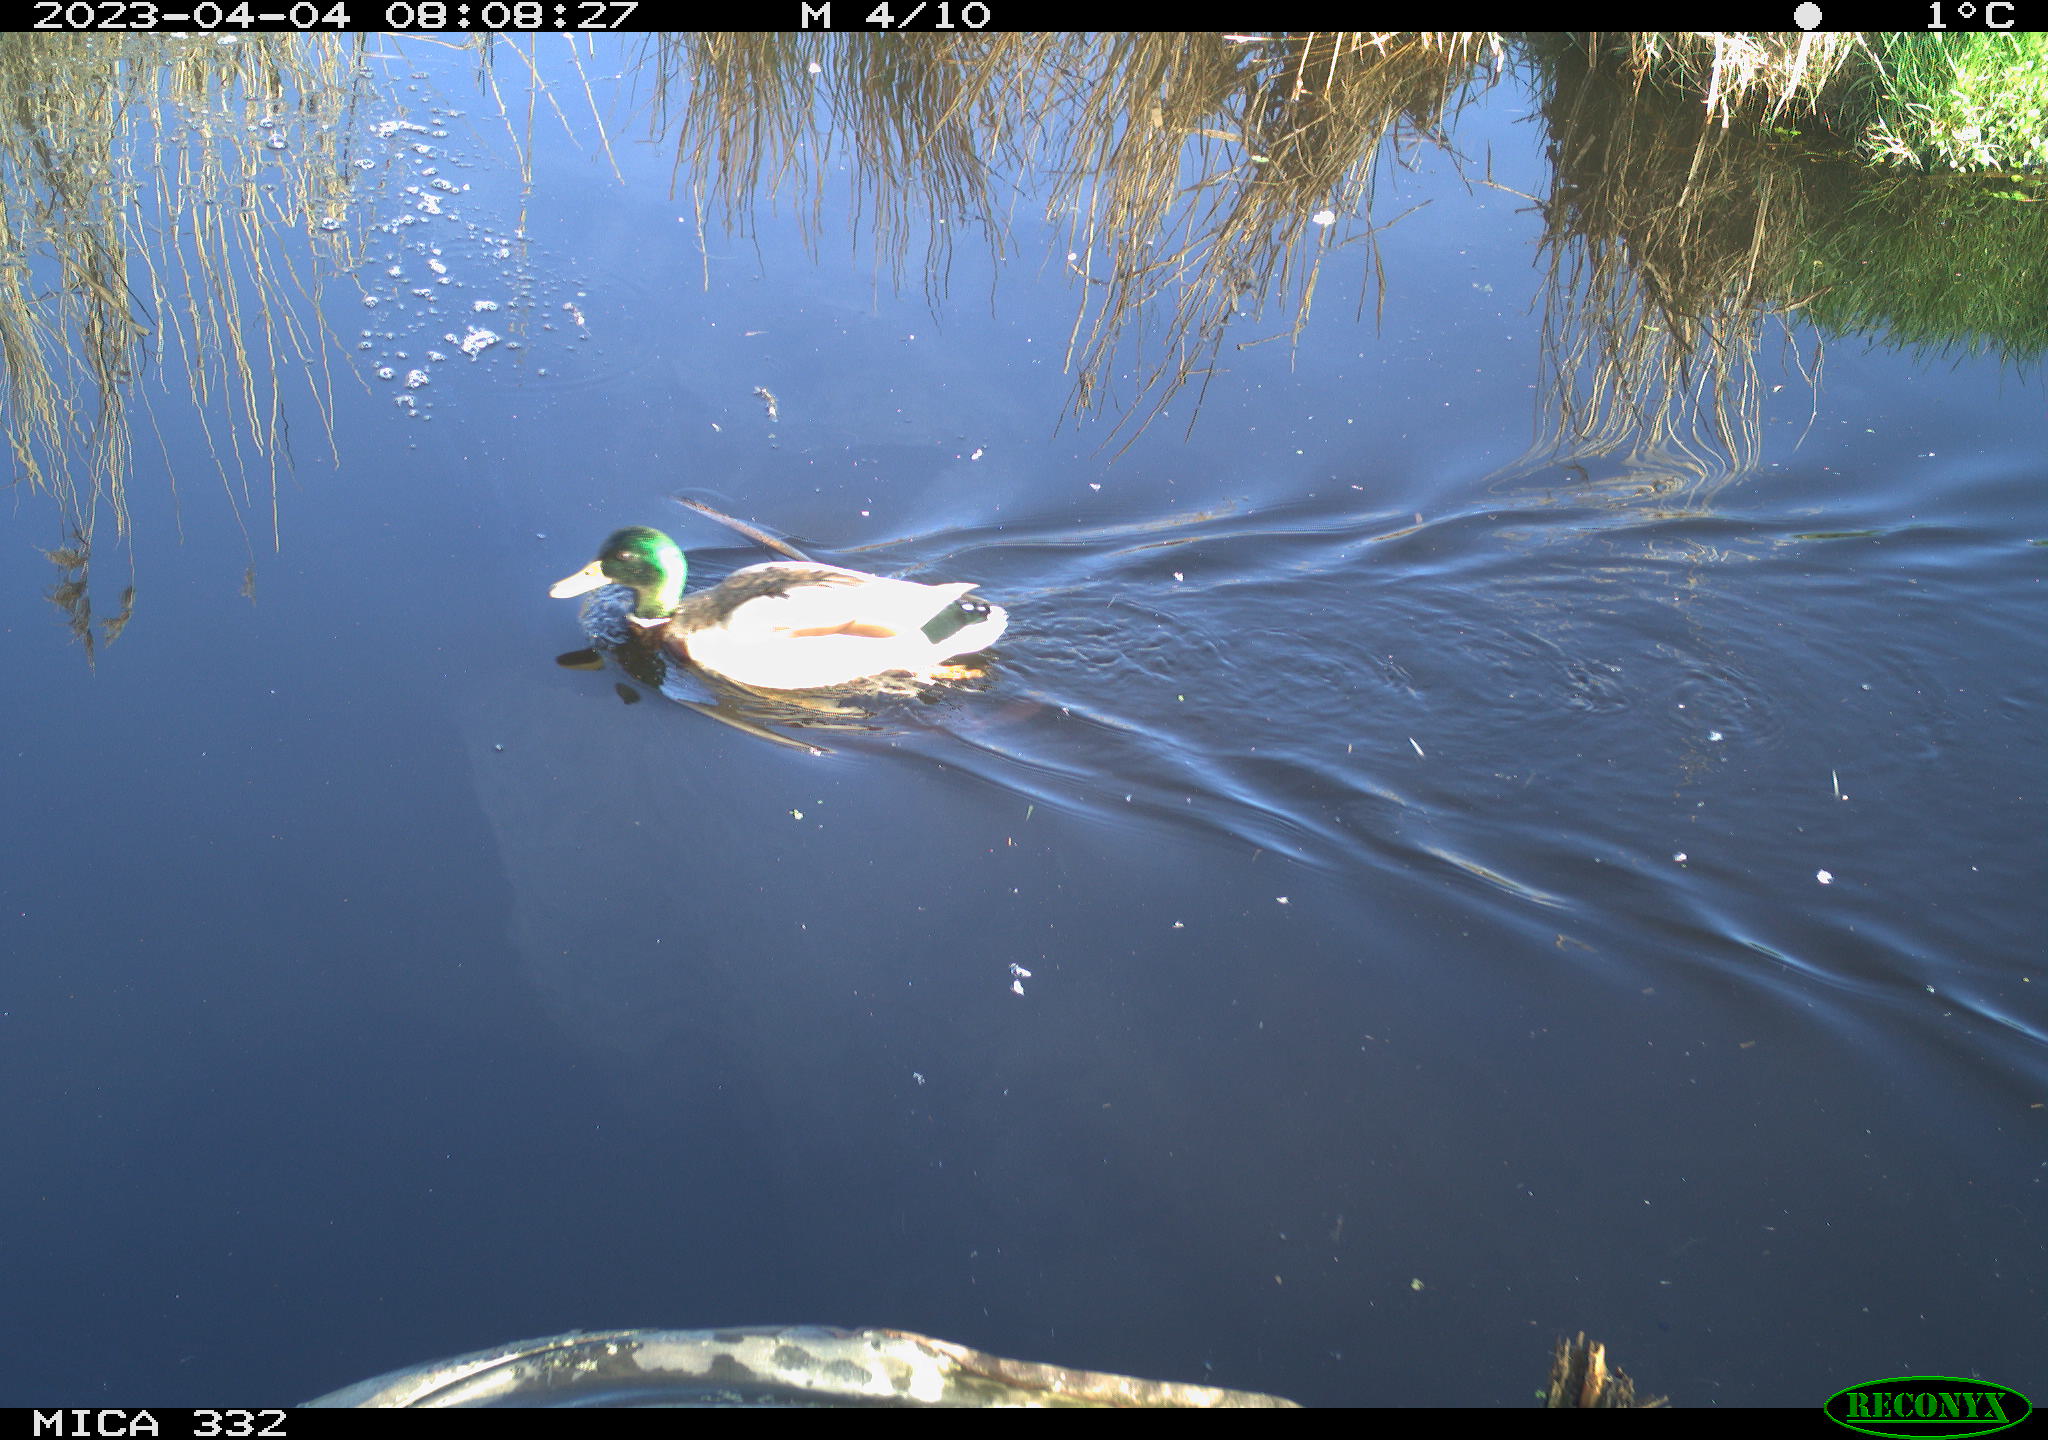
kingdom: Animalia
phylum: Chordata
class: Aves
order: Anseriformes
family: Anatidae
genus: Anas
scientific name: Anas
